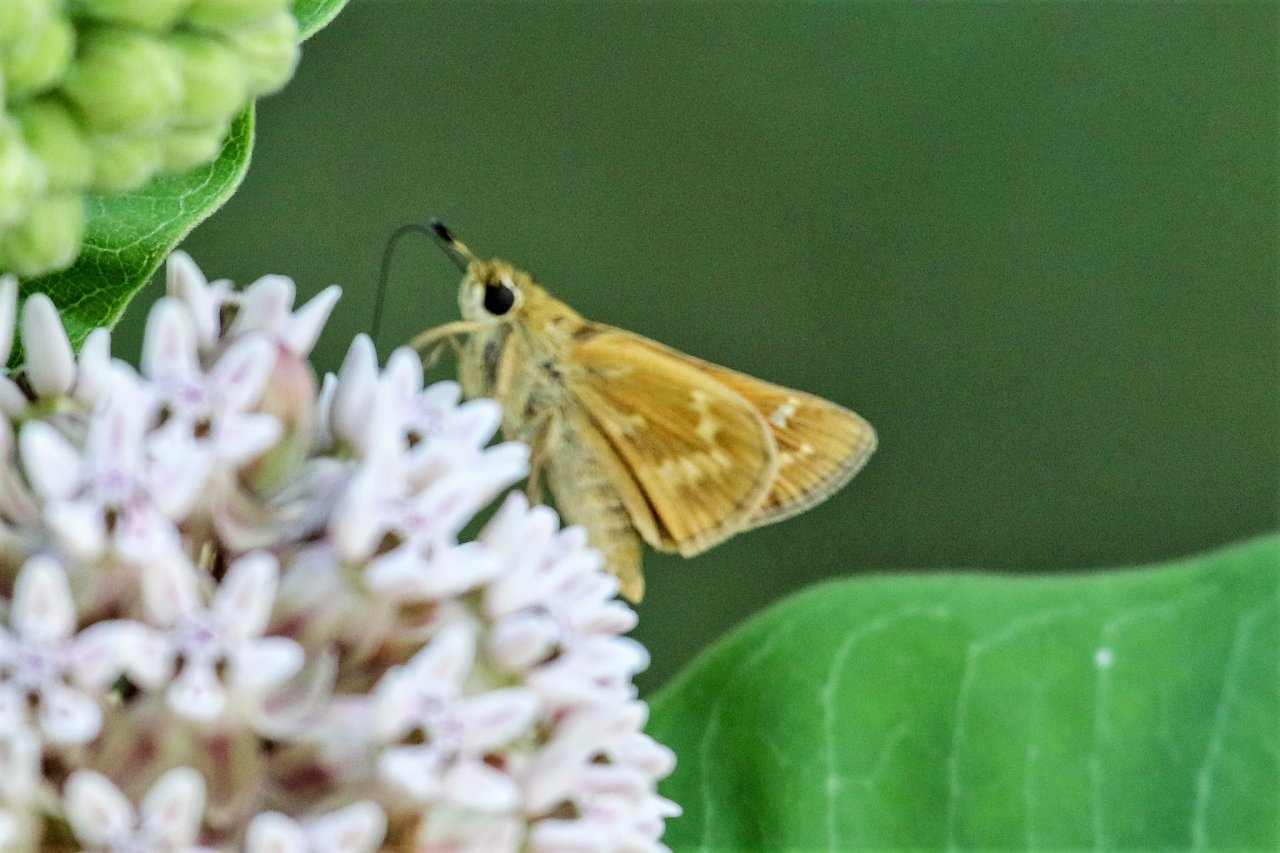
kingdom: Animalia
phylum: Arthropoda
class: Insecta
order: Lepidoptera
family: Hesperiidae
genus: Atalopedes
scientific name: Atalopedes campestris
